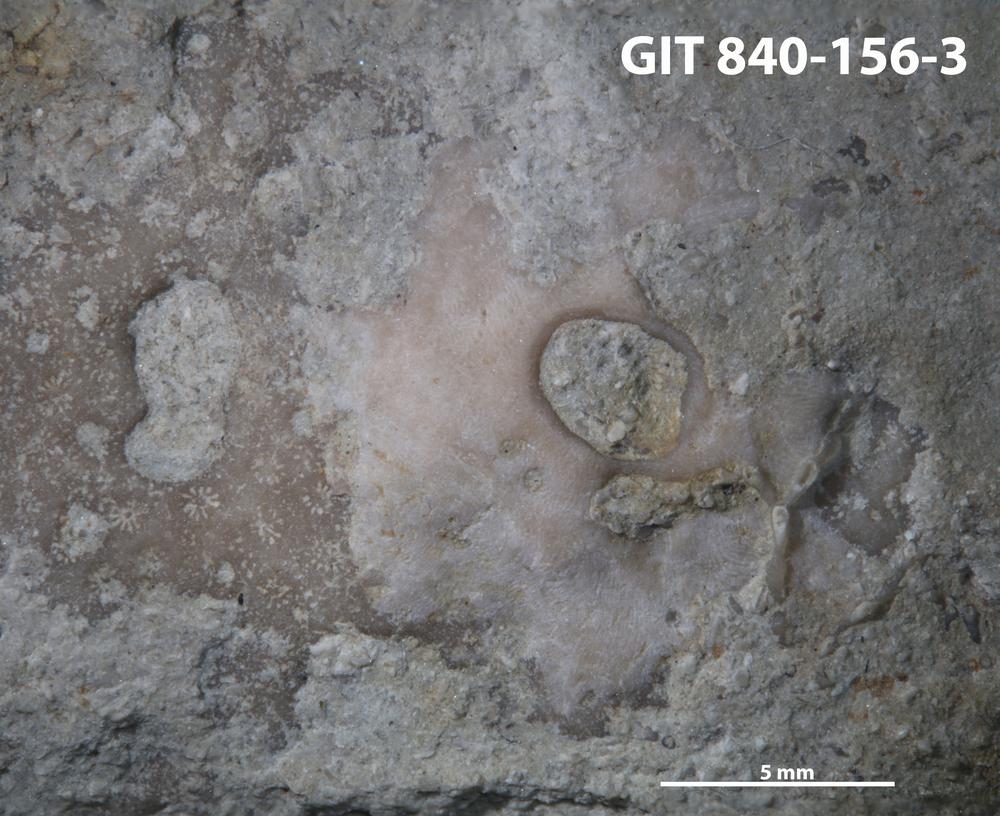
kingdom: Animalia
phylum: Bryozoa
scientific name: Bryozoa
